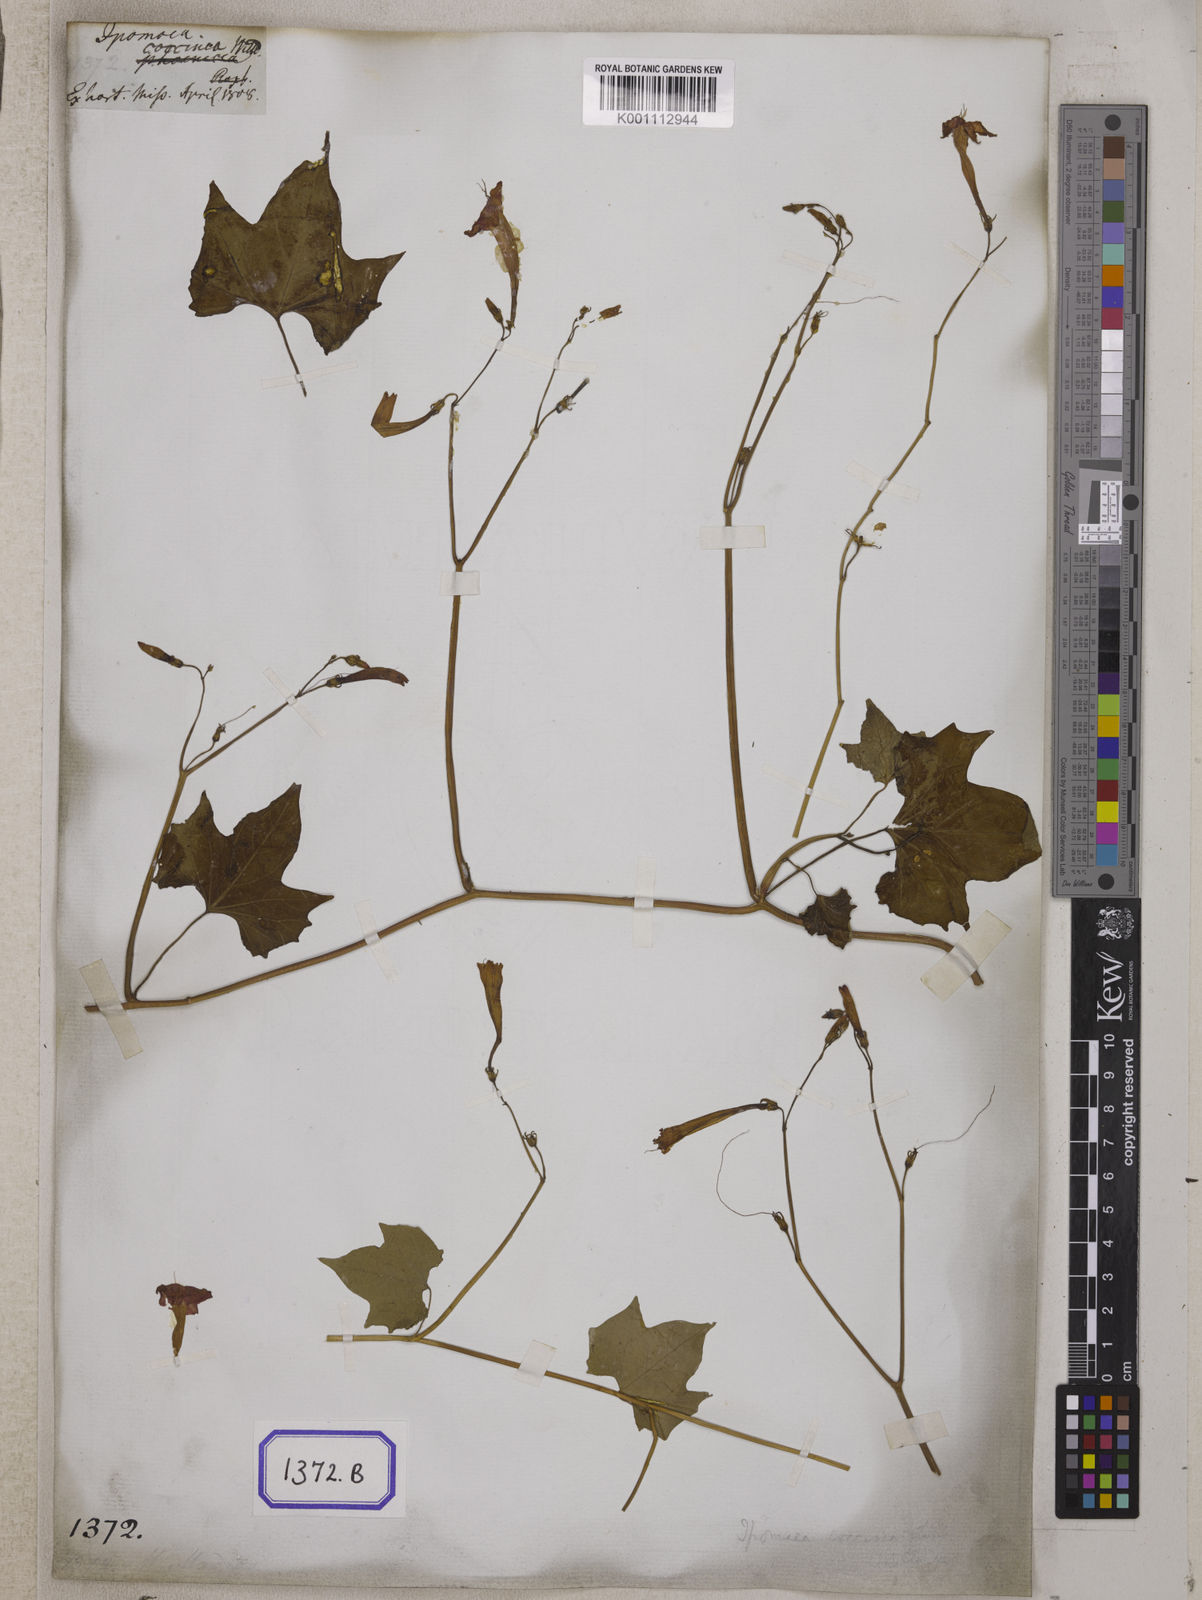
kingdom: Plantae
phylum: Tracheophyta
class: Magnoliopsida
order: Solanales
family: Convolvulaceae
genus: Convolvulus
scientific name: Convolvulus
